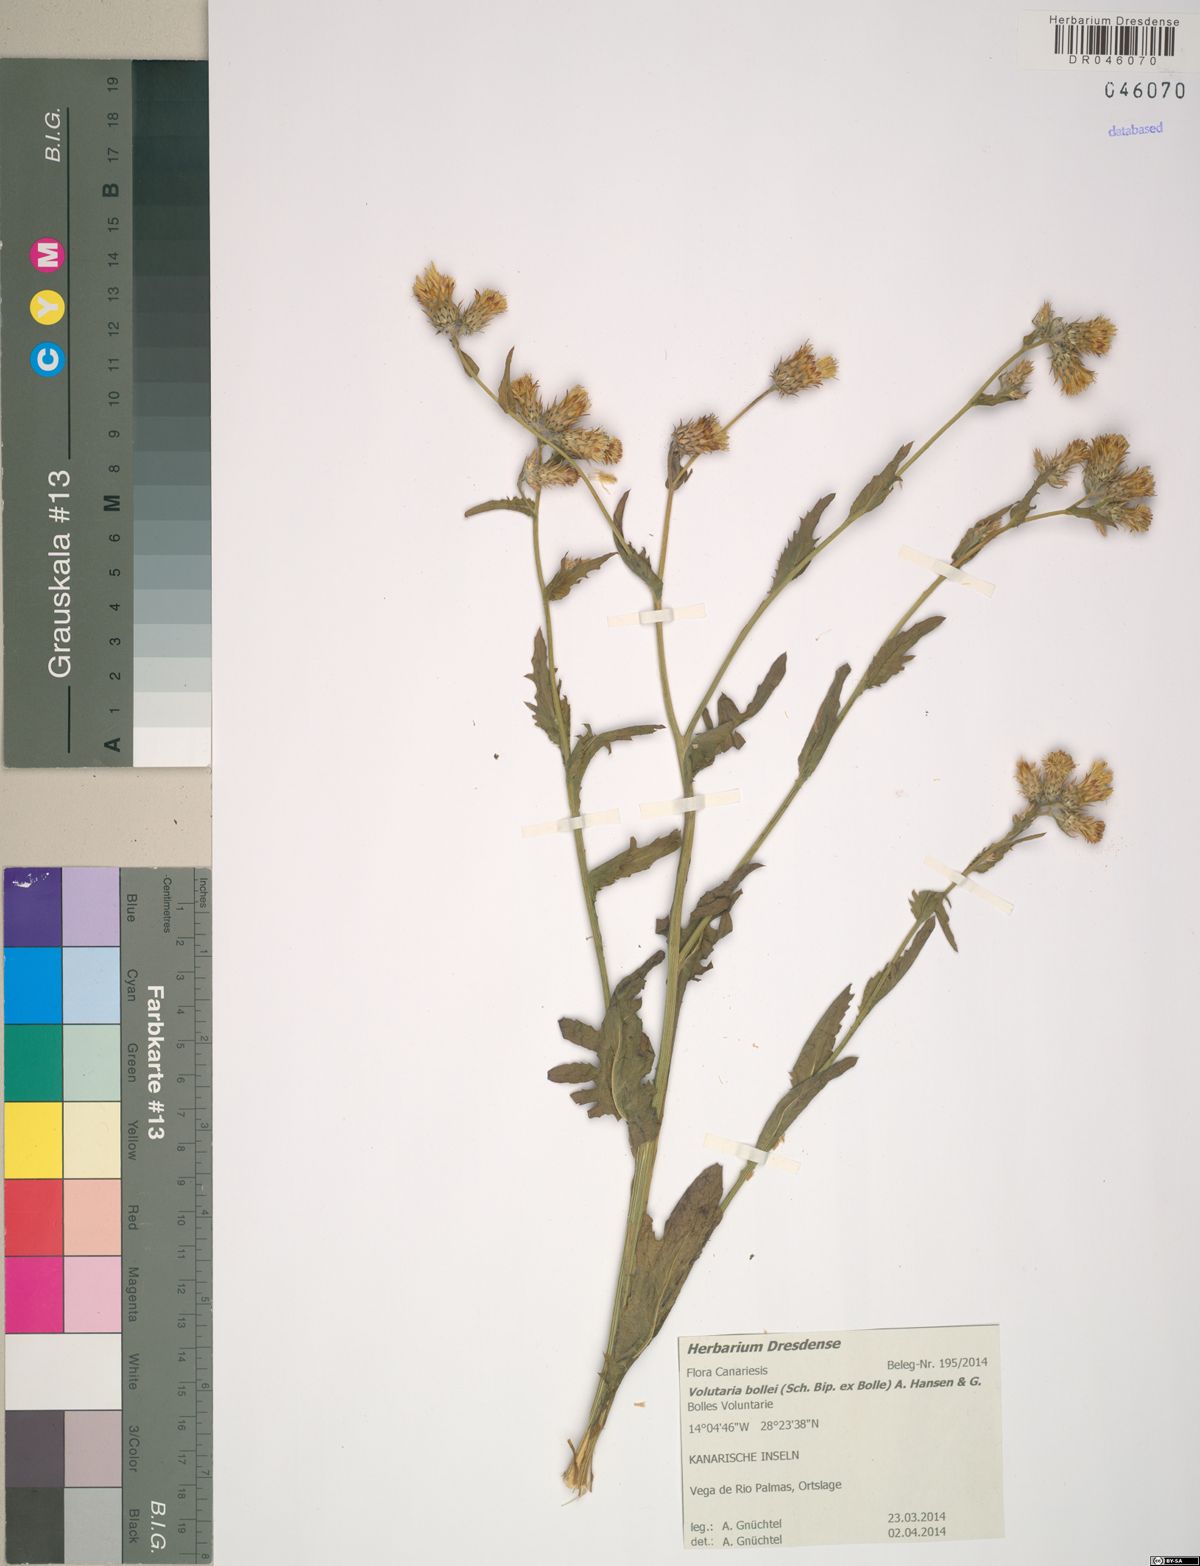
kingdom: Plantae
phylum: Tracheophyta
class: Magnoliopsida
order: Asterales
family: Asteraceae
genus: Volutaria
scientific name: Volutaria bollei
